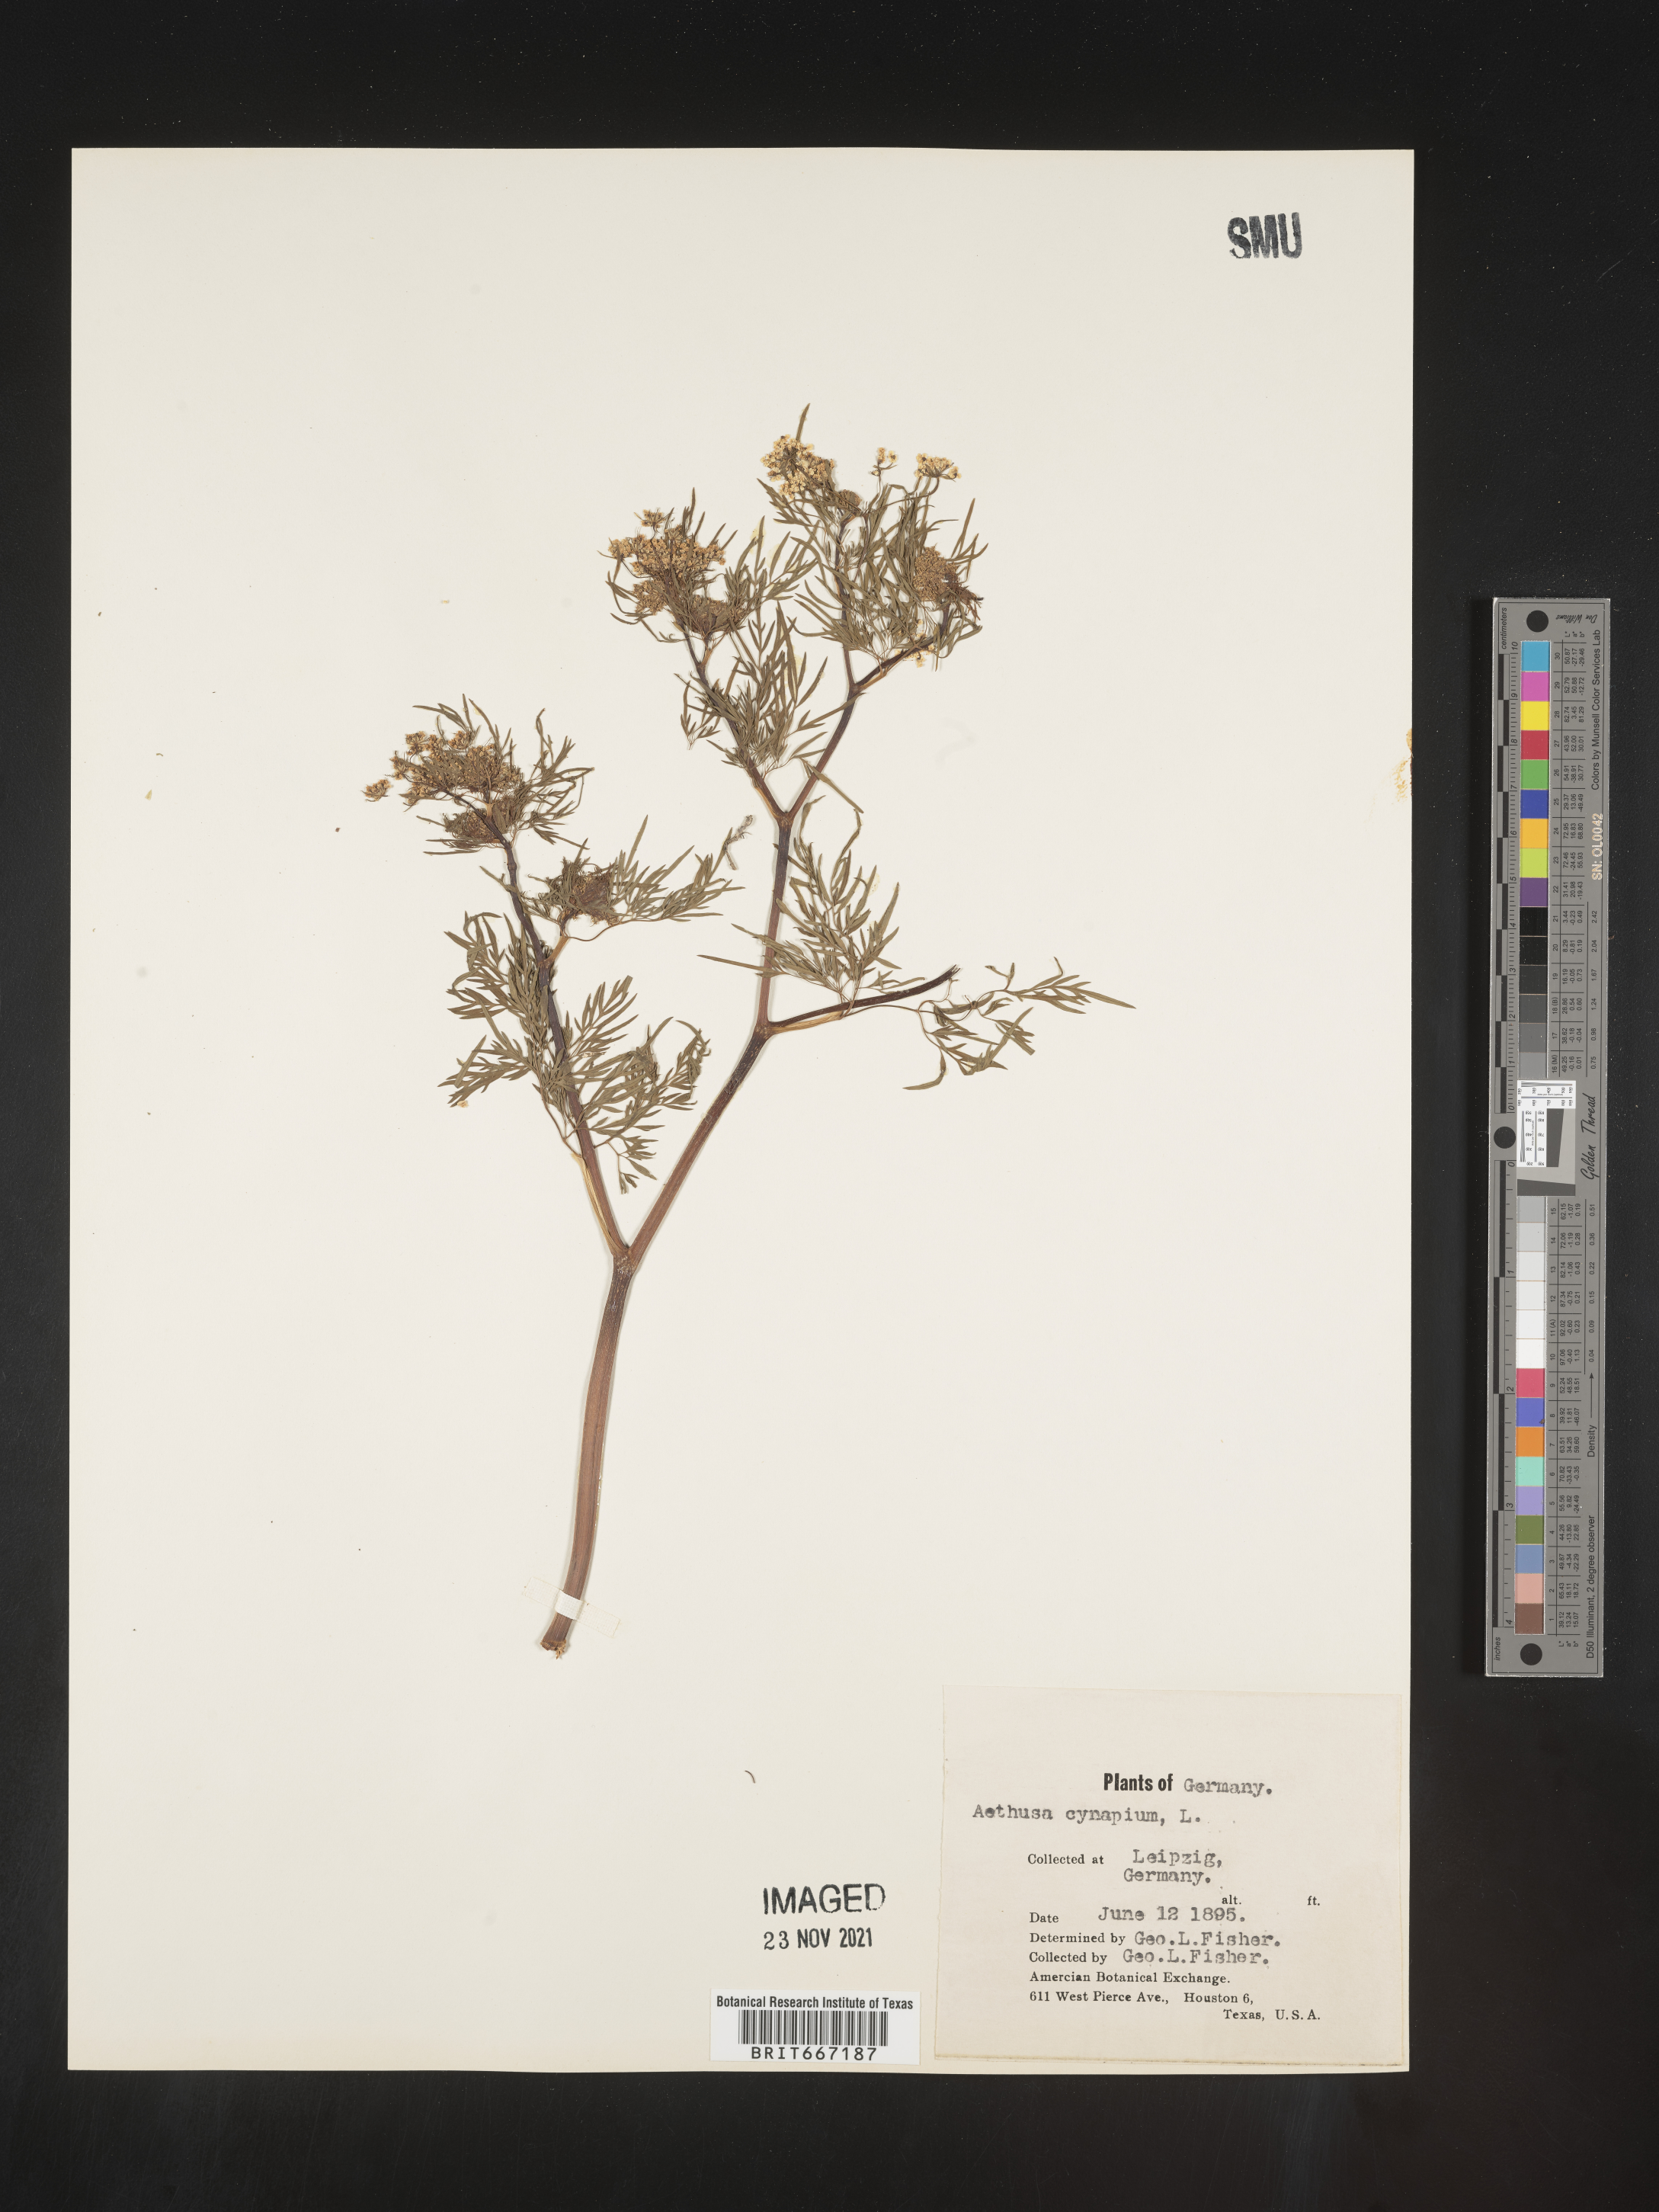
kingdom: Plantae
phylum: Tracheophyta
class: Magnoliopsida
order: Apiales
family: Apiaceae
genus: Aethusa
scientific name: Aethusa
